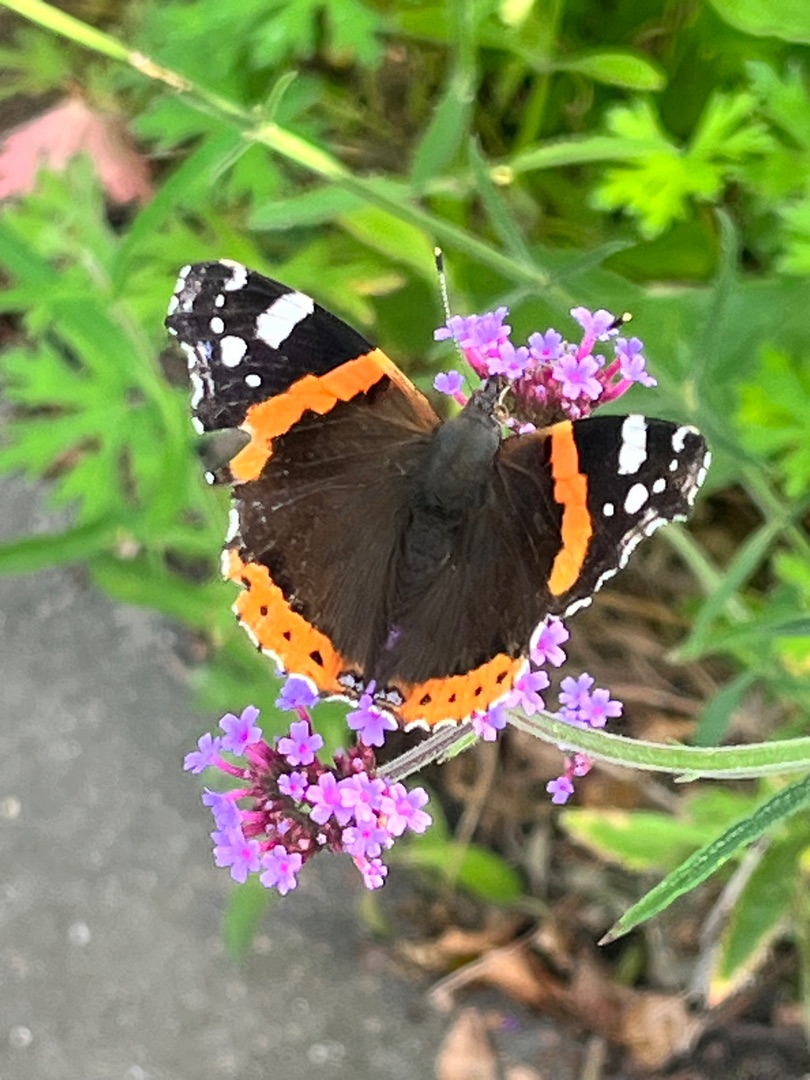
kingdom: Animalia
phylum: Arthropoda
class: Insecta
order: Lepidoptera
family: Nymphalidae
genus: Vanessa
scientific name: Vanessa atalanta
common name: Admiral
